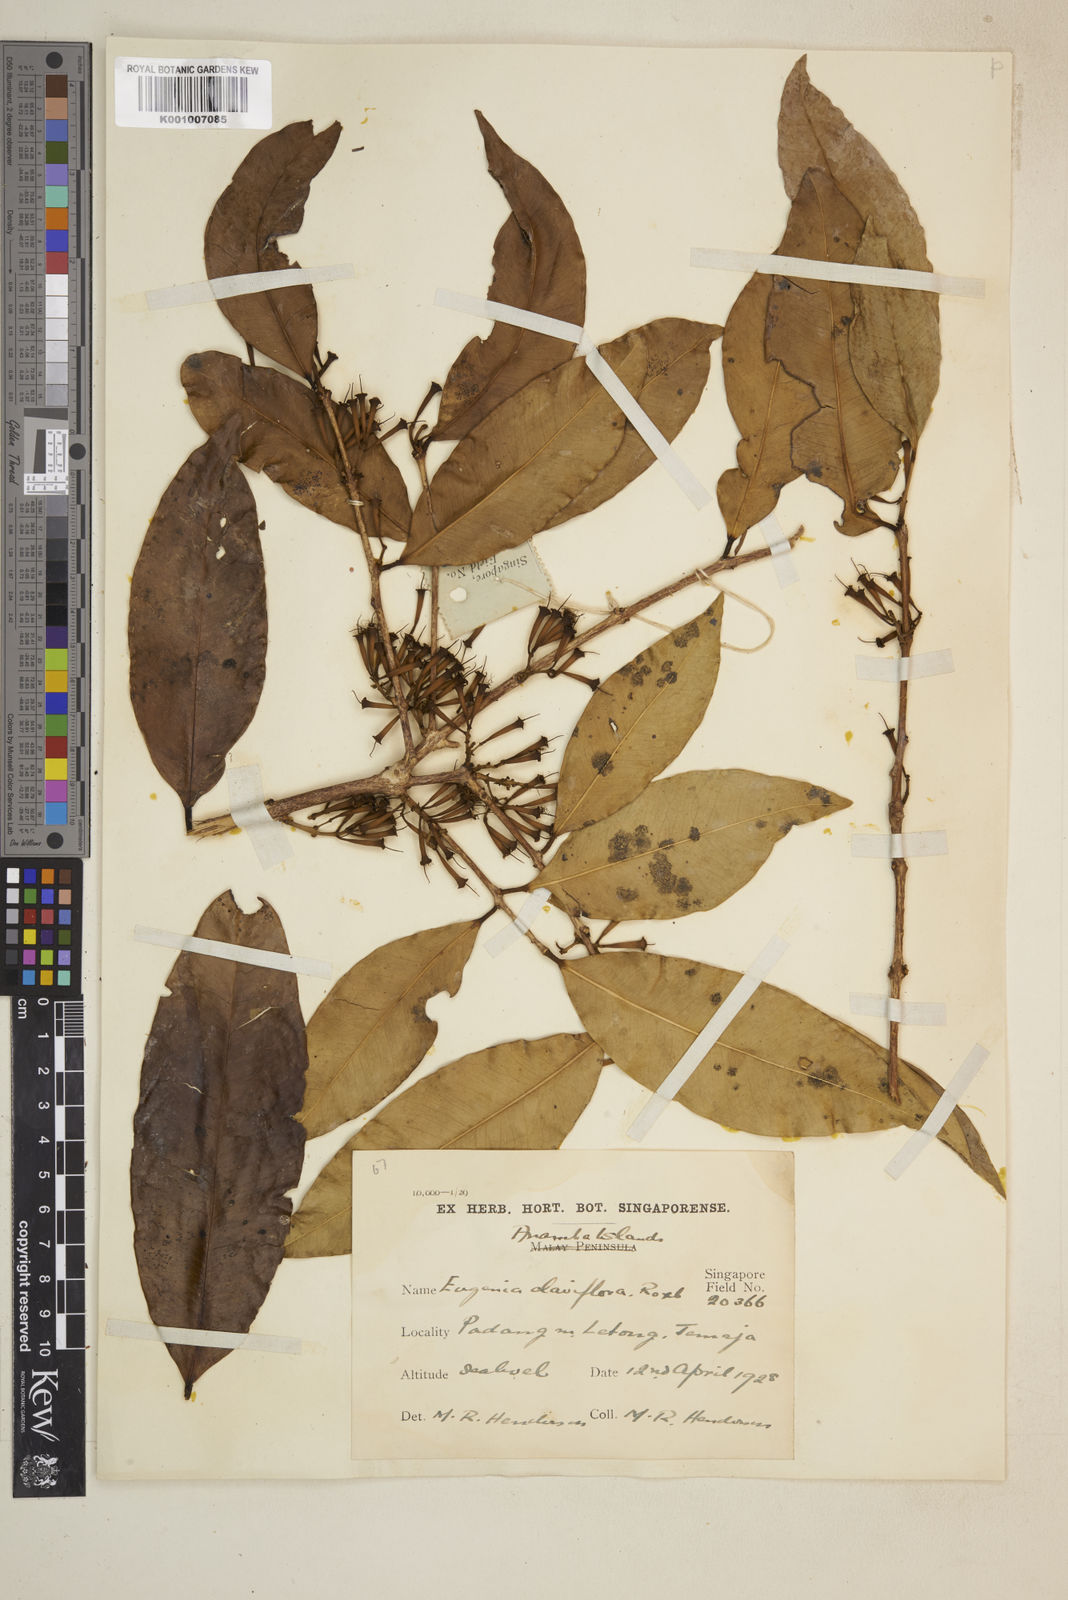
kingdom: Plantae
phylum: Tracheophyta
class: Magnoliopsida
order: Myrtales
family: Myrtaceae
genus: Syzygium
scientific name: Syzygium claviflorum
